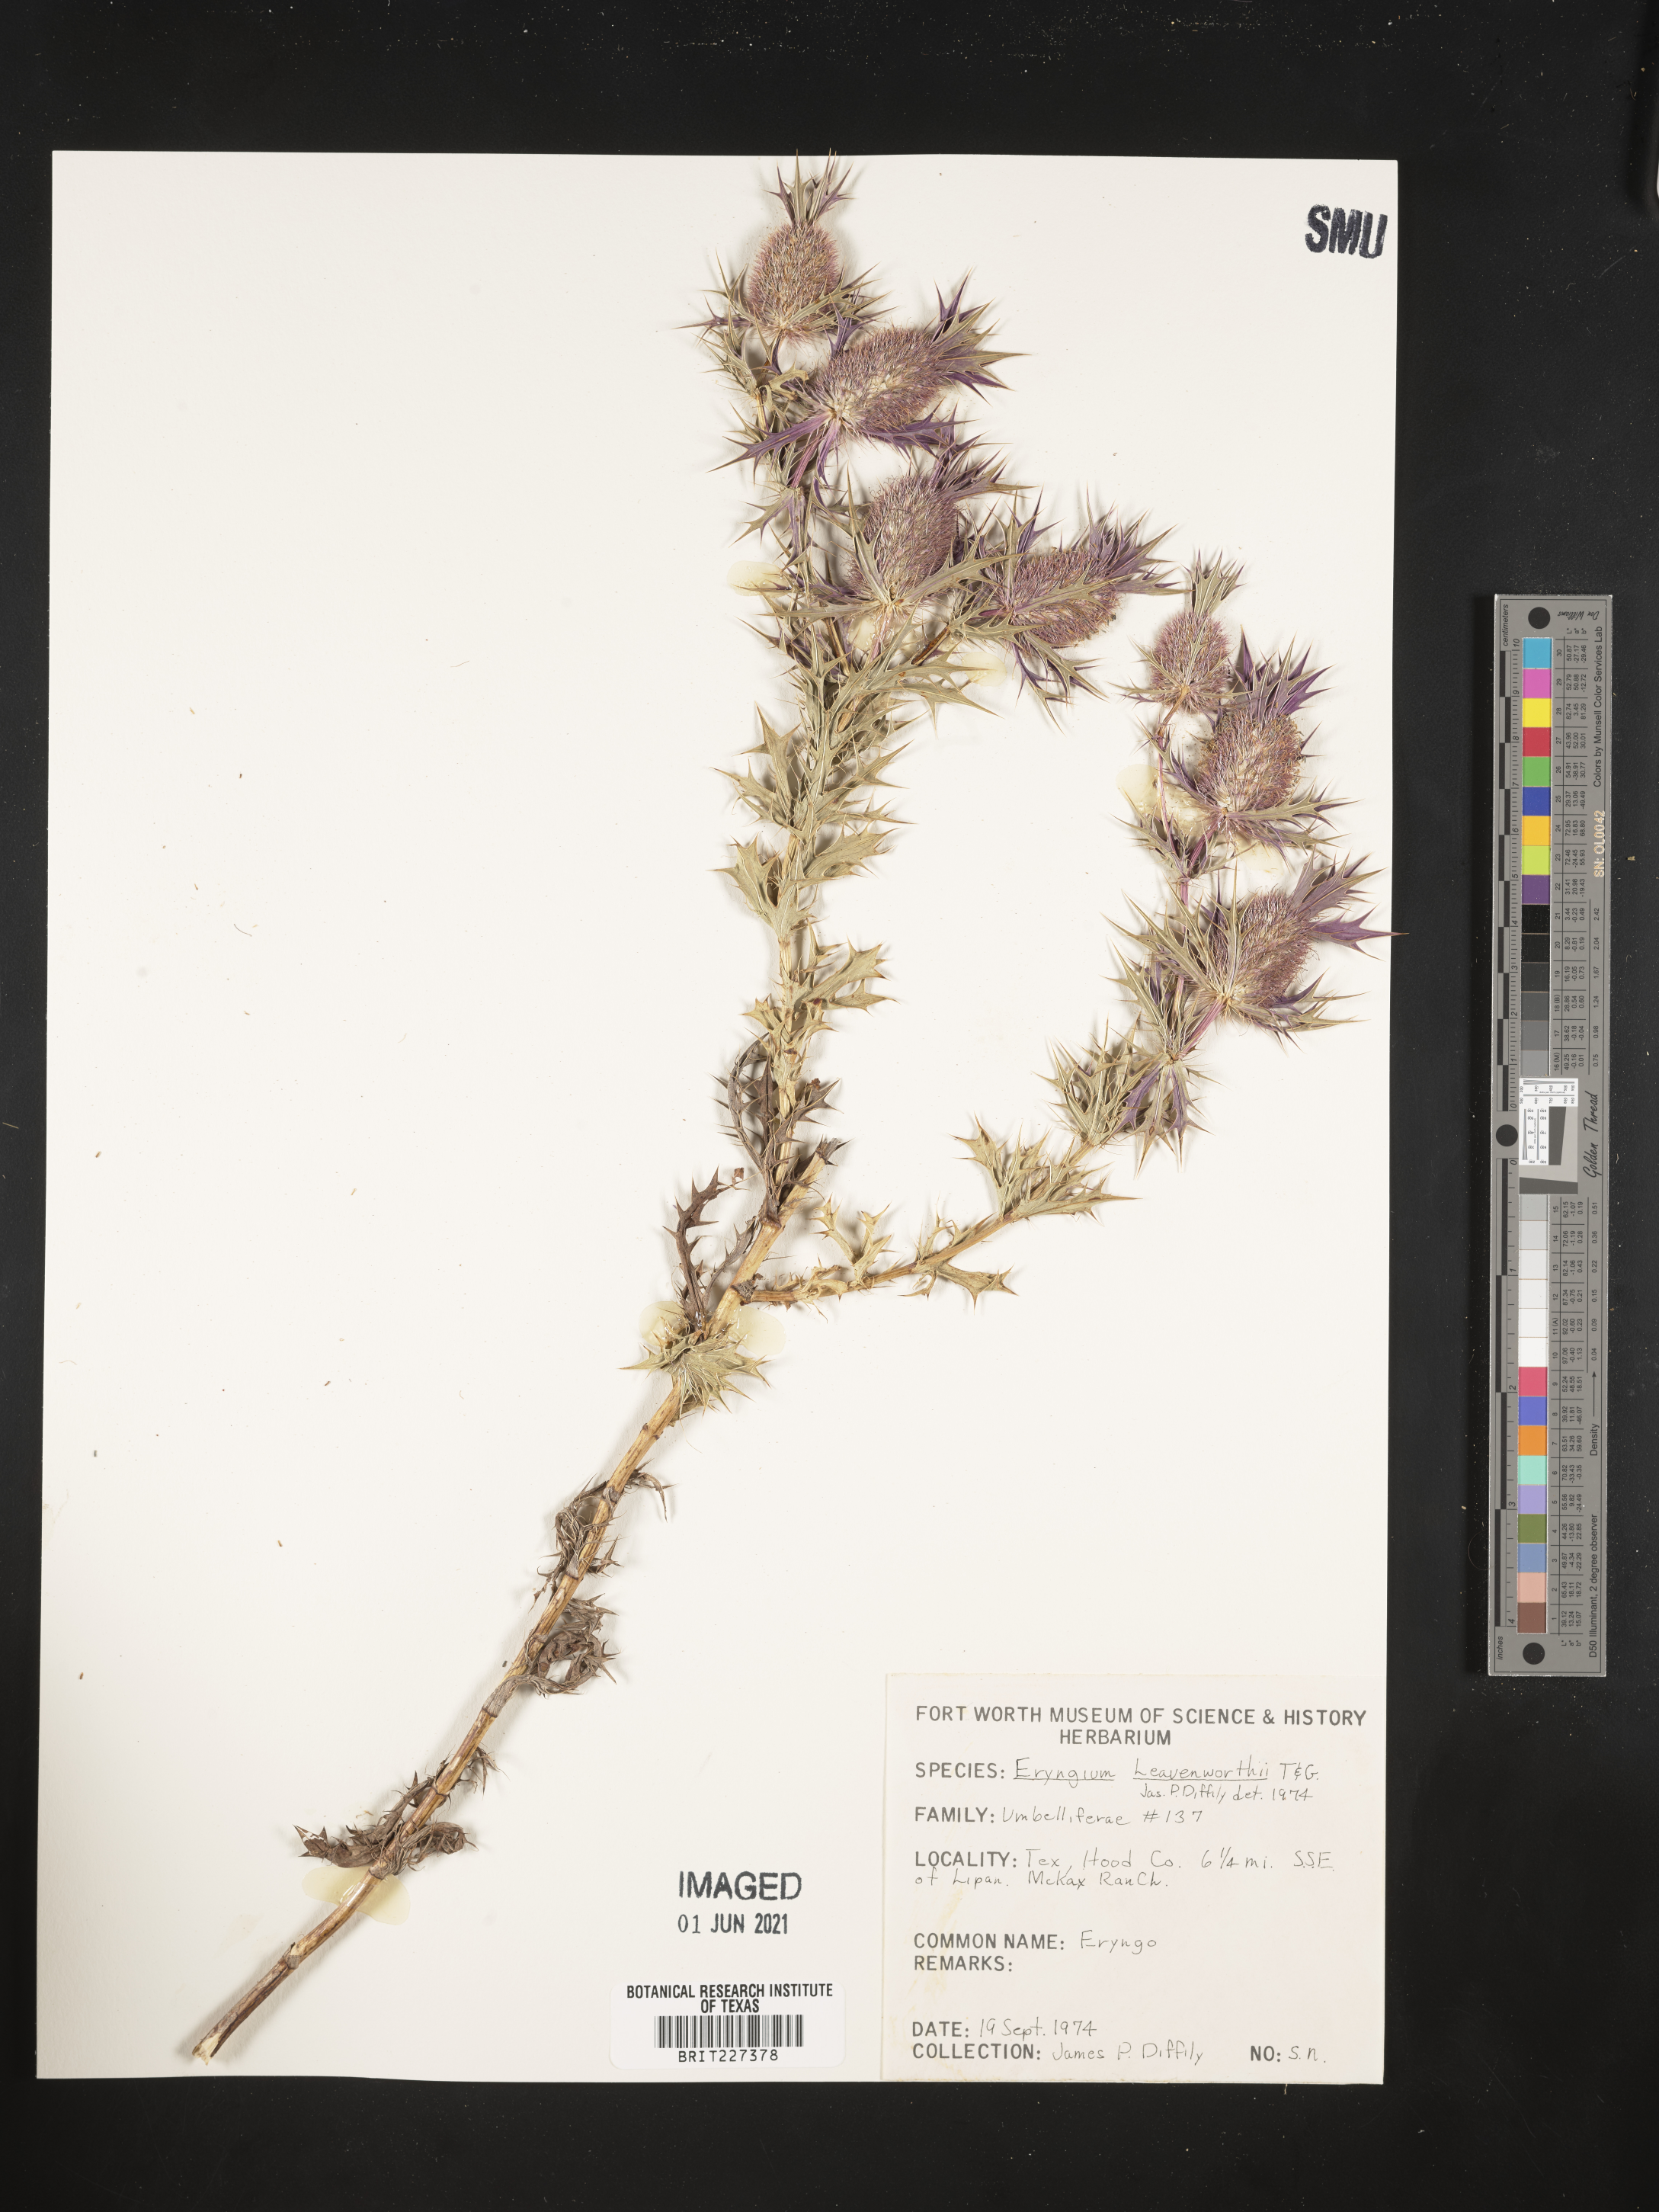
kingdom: Plantae
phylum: Tracheophyta
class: Magnoliopsida
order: Apiales
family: Apiaceae
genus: Eryngium
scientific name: Eryngium leavenworthii
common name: Leavenworth's eryngo
